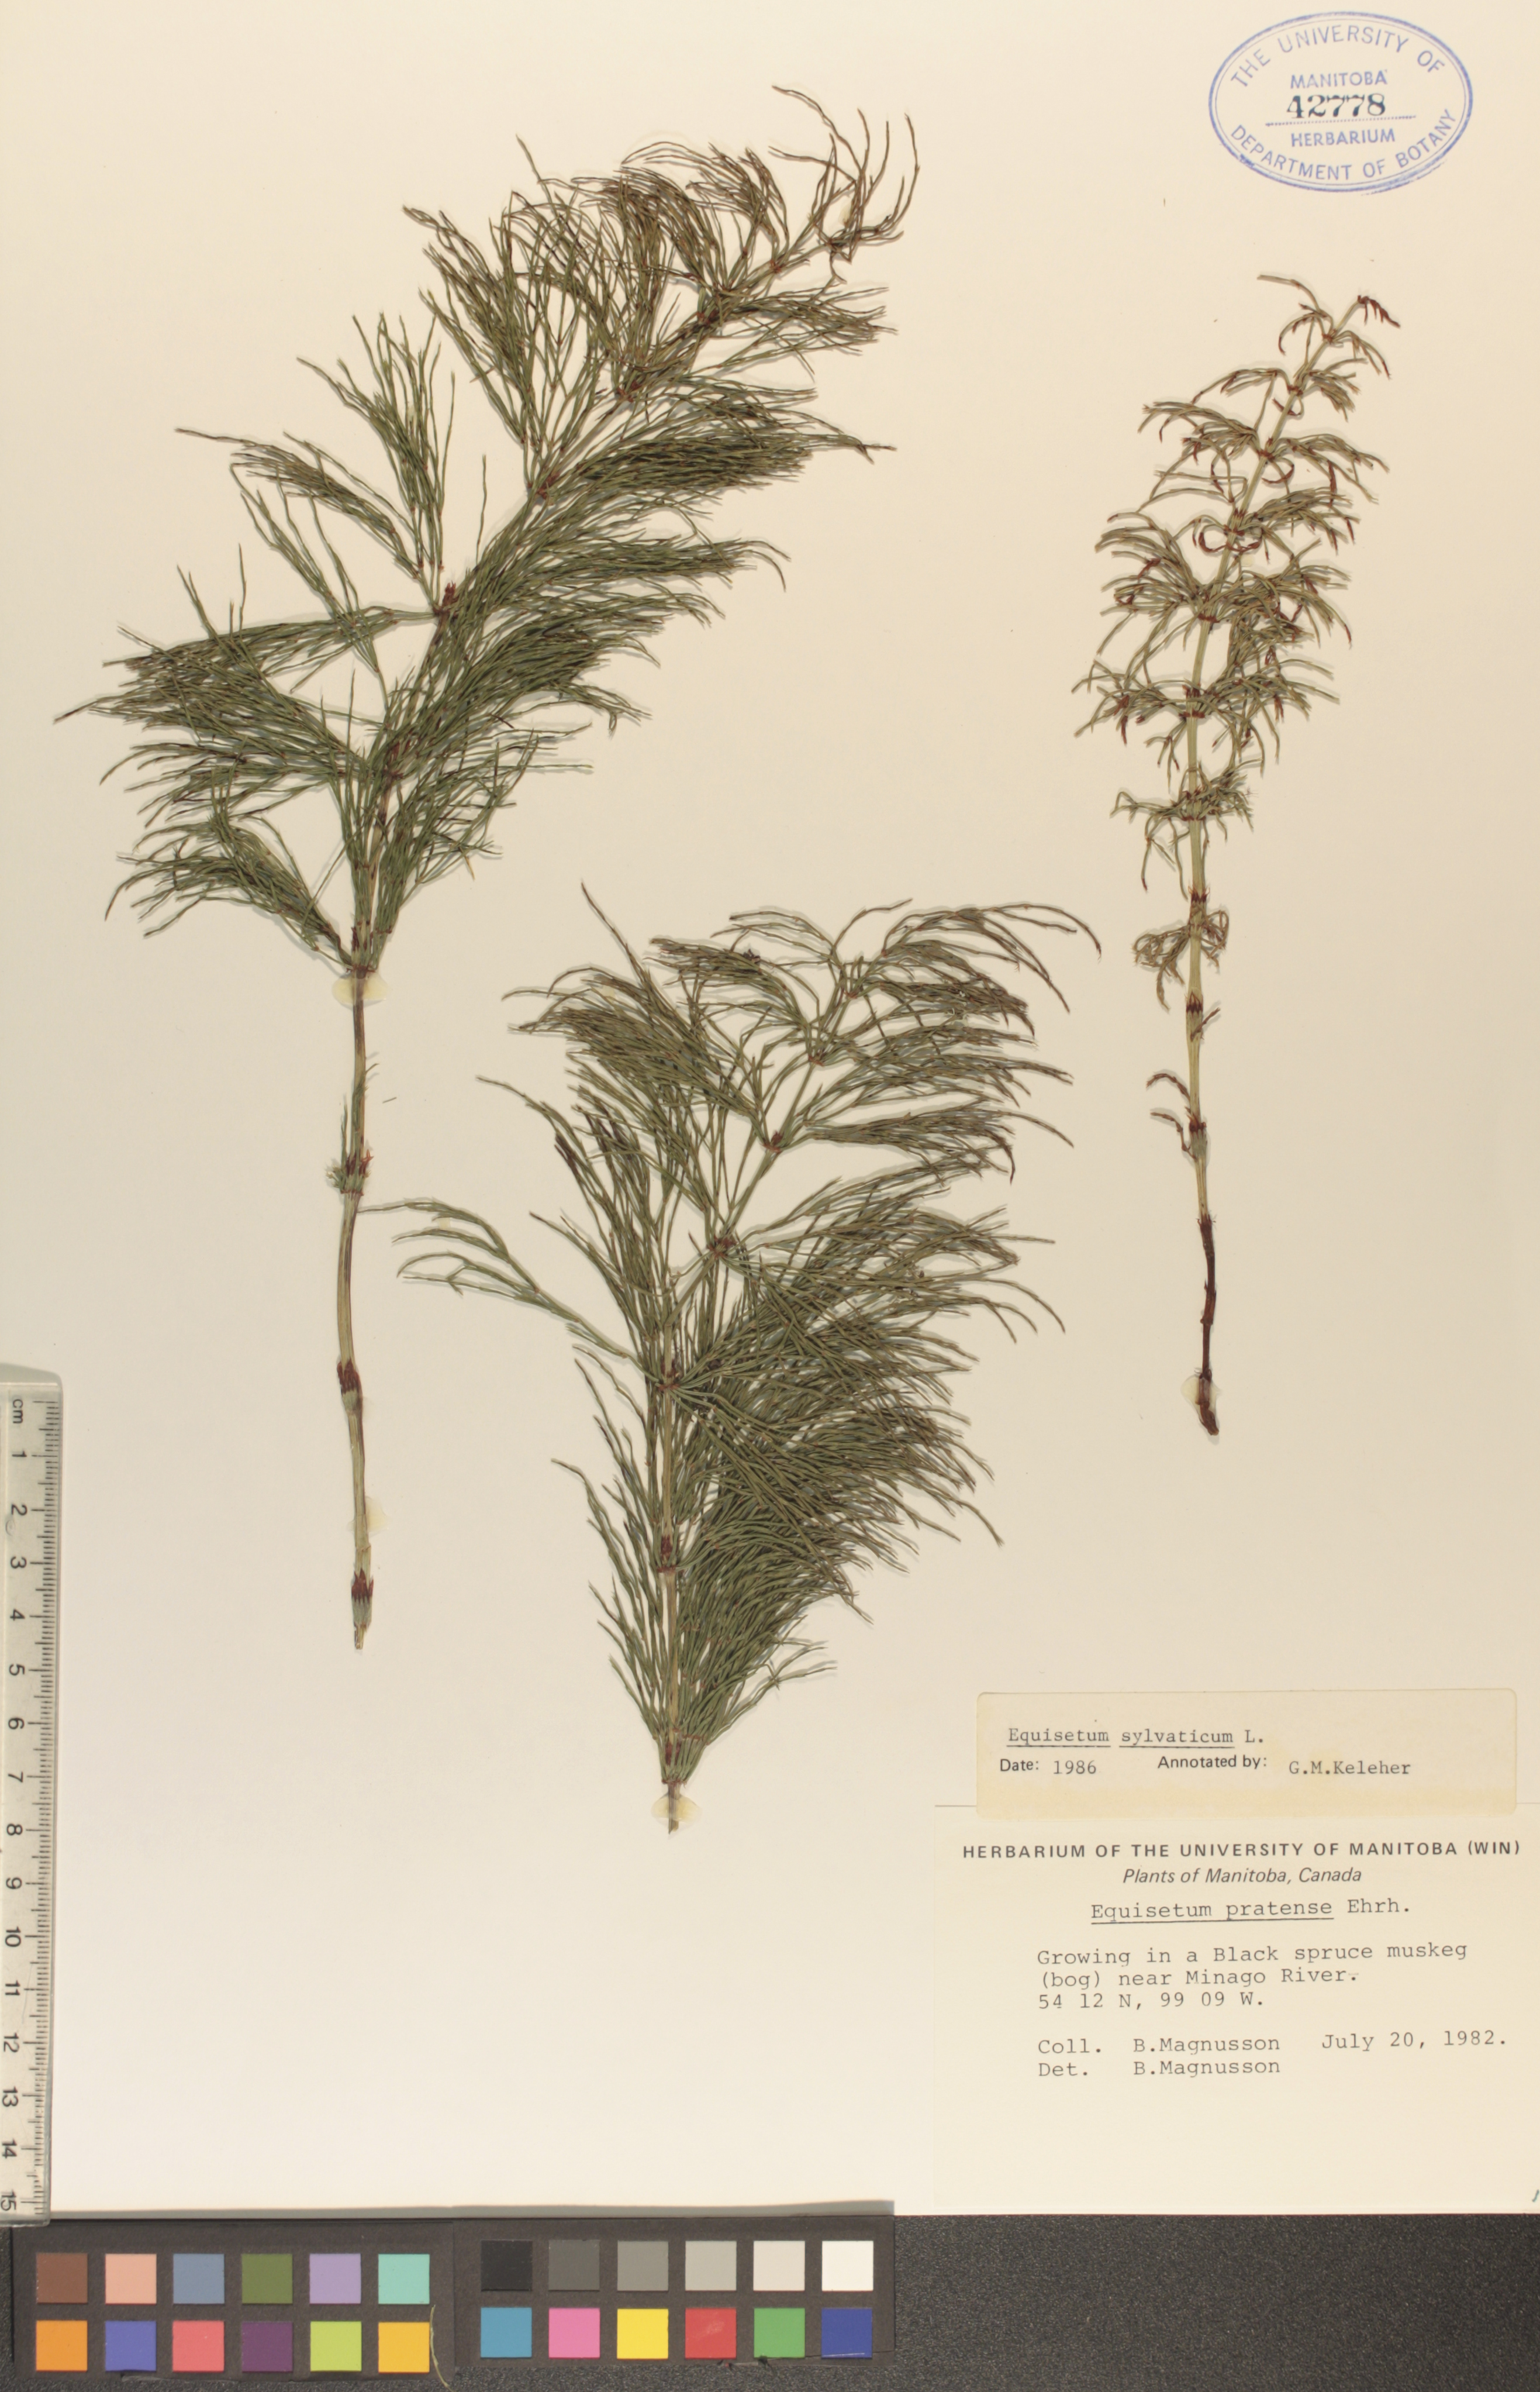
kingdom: Plantae
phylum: Tracheophyta
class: Polypodiopsida
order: Equisetales
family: Equisetaceae
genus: Equisetum
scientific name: Equisetum sylvaticum
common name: Wood horsetail
